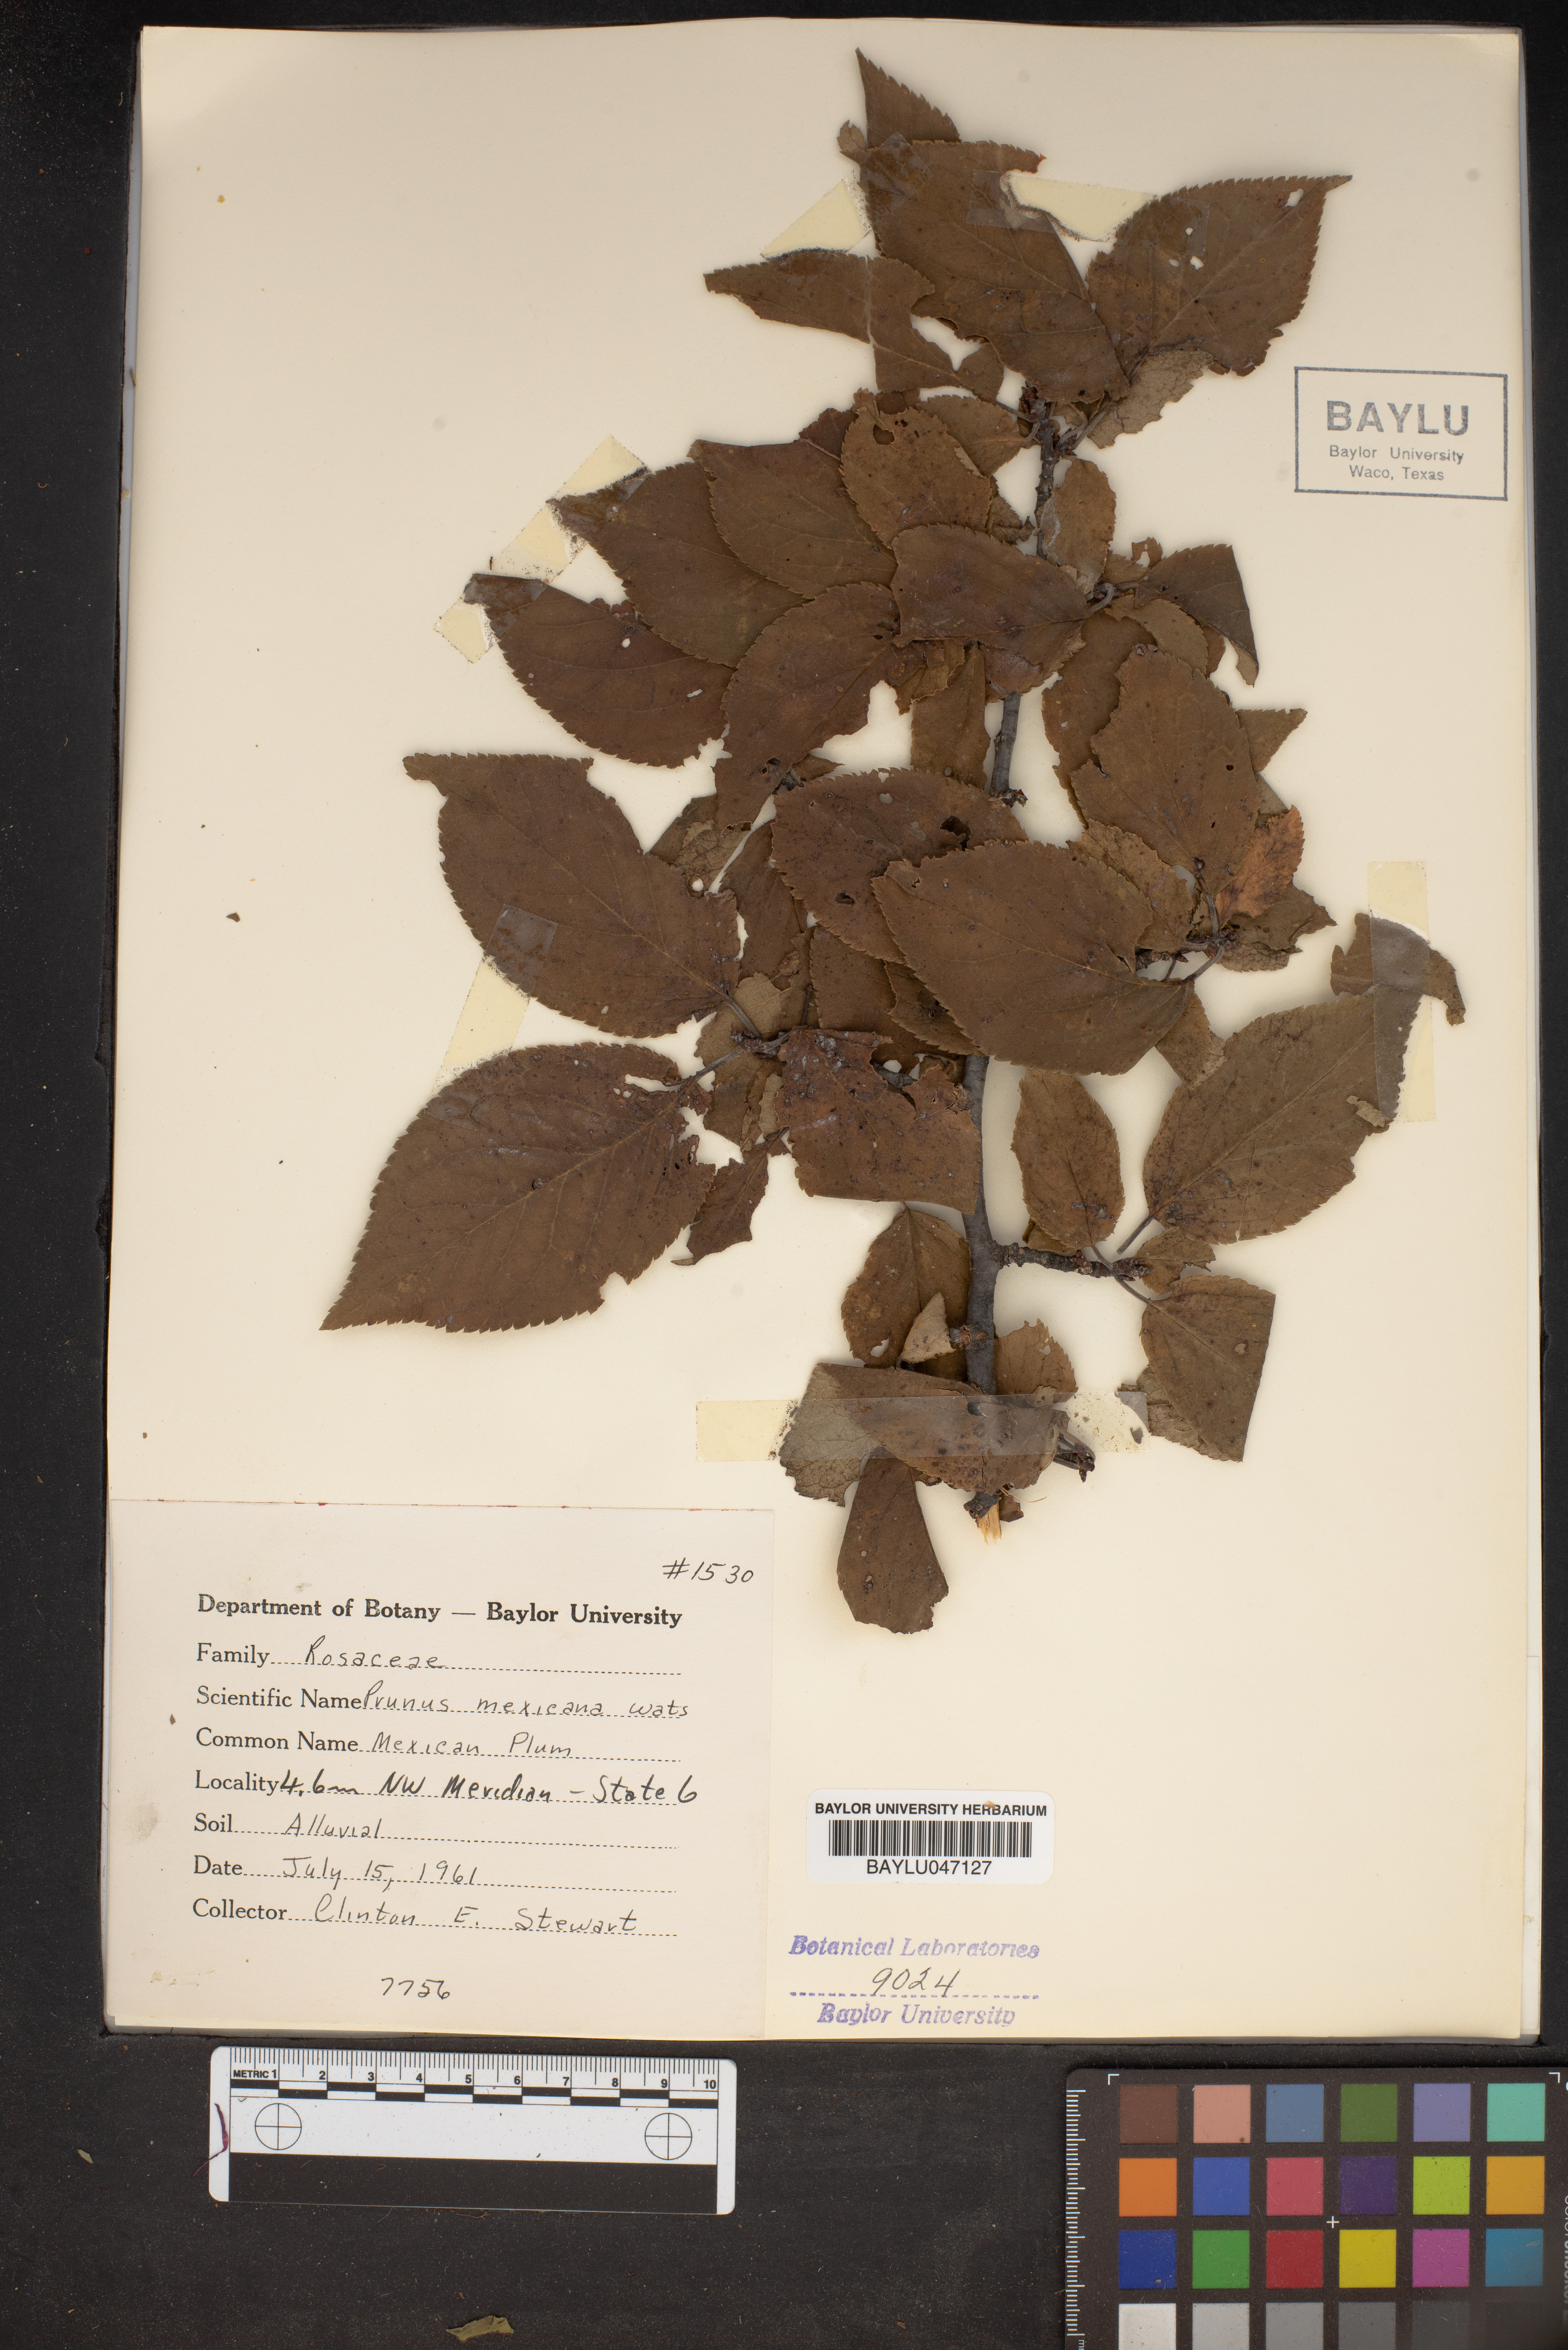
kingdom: Plantae
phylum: Tracheophyta
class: Magnoliopsida
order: Rosales
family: Rosaceae
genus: Prunus
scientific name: Prunus mexicana
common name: Mexican plum
